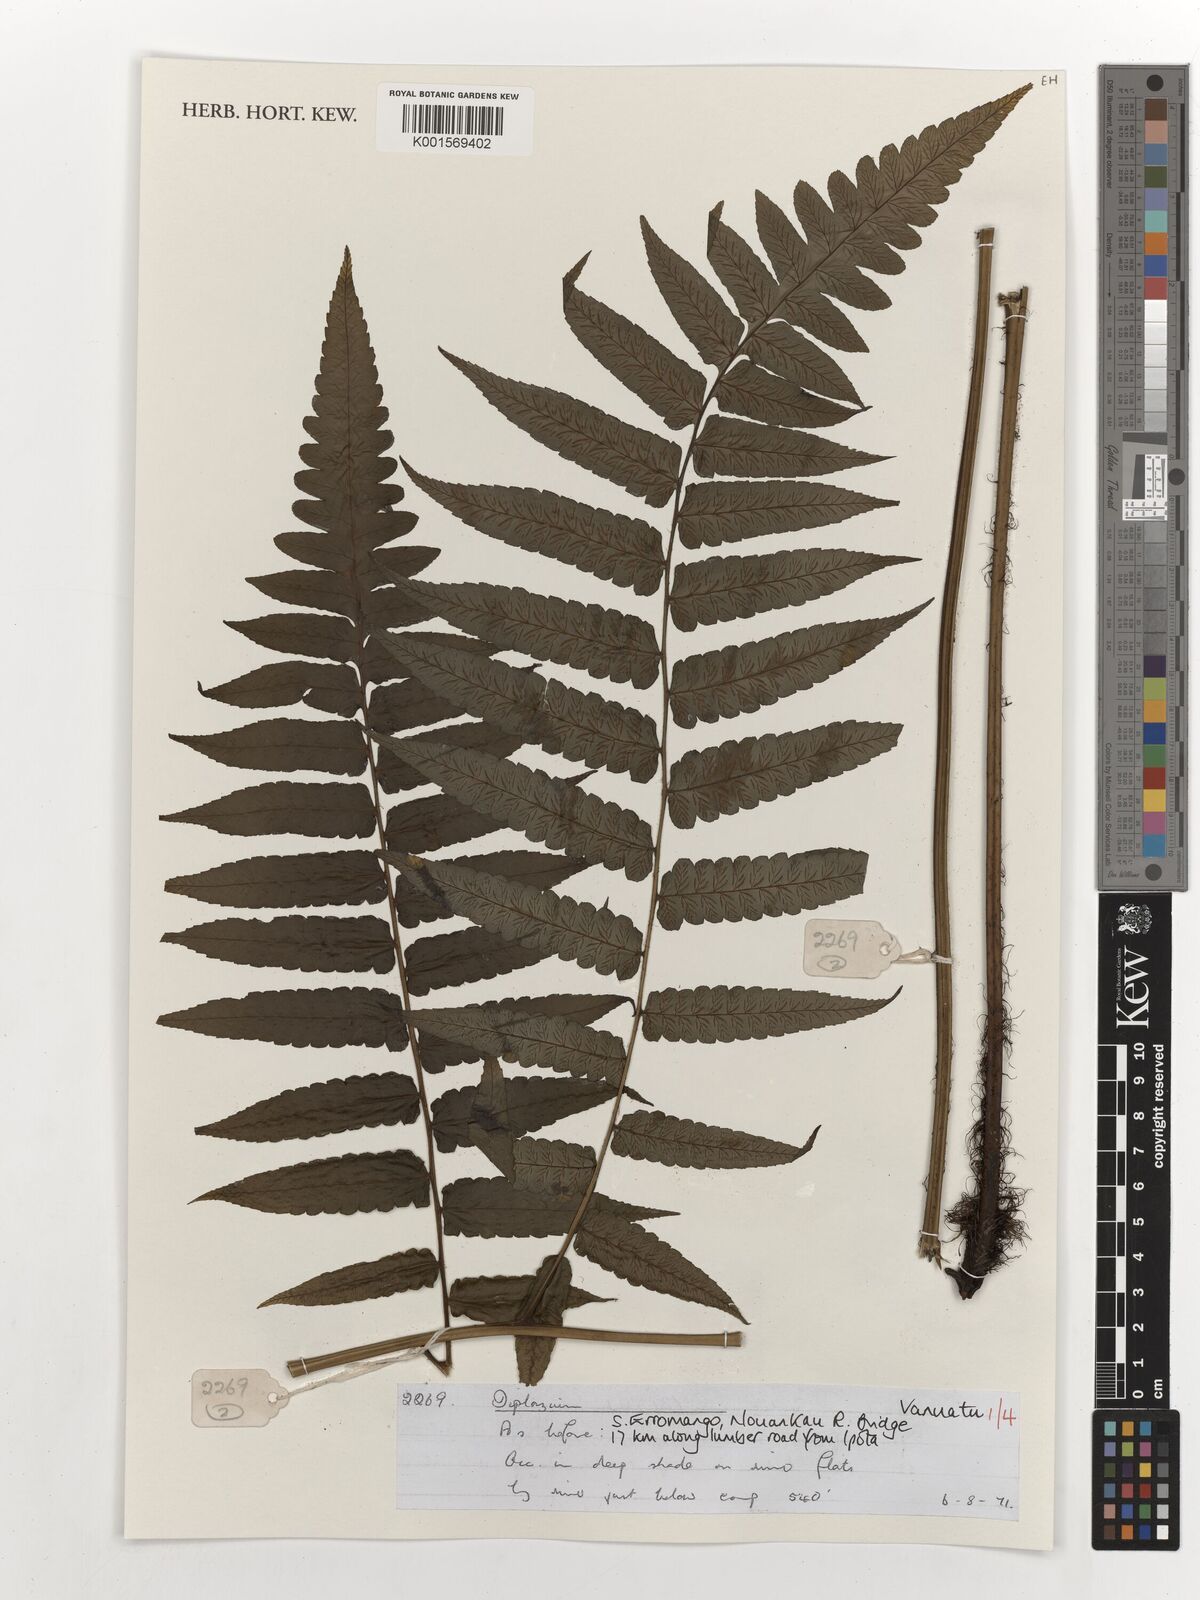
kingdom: Plantae
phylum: Tracheophyta
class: Polypodiopsida
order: Polypodiales
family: Athyriaceae
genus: Diplazium
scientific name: Diplazium
